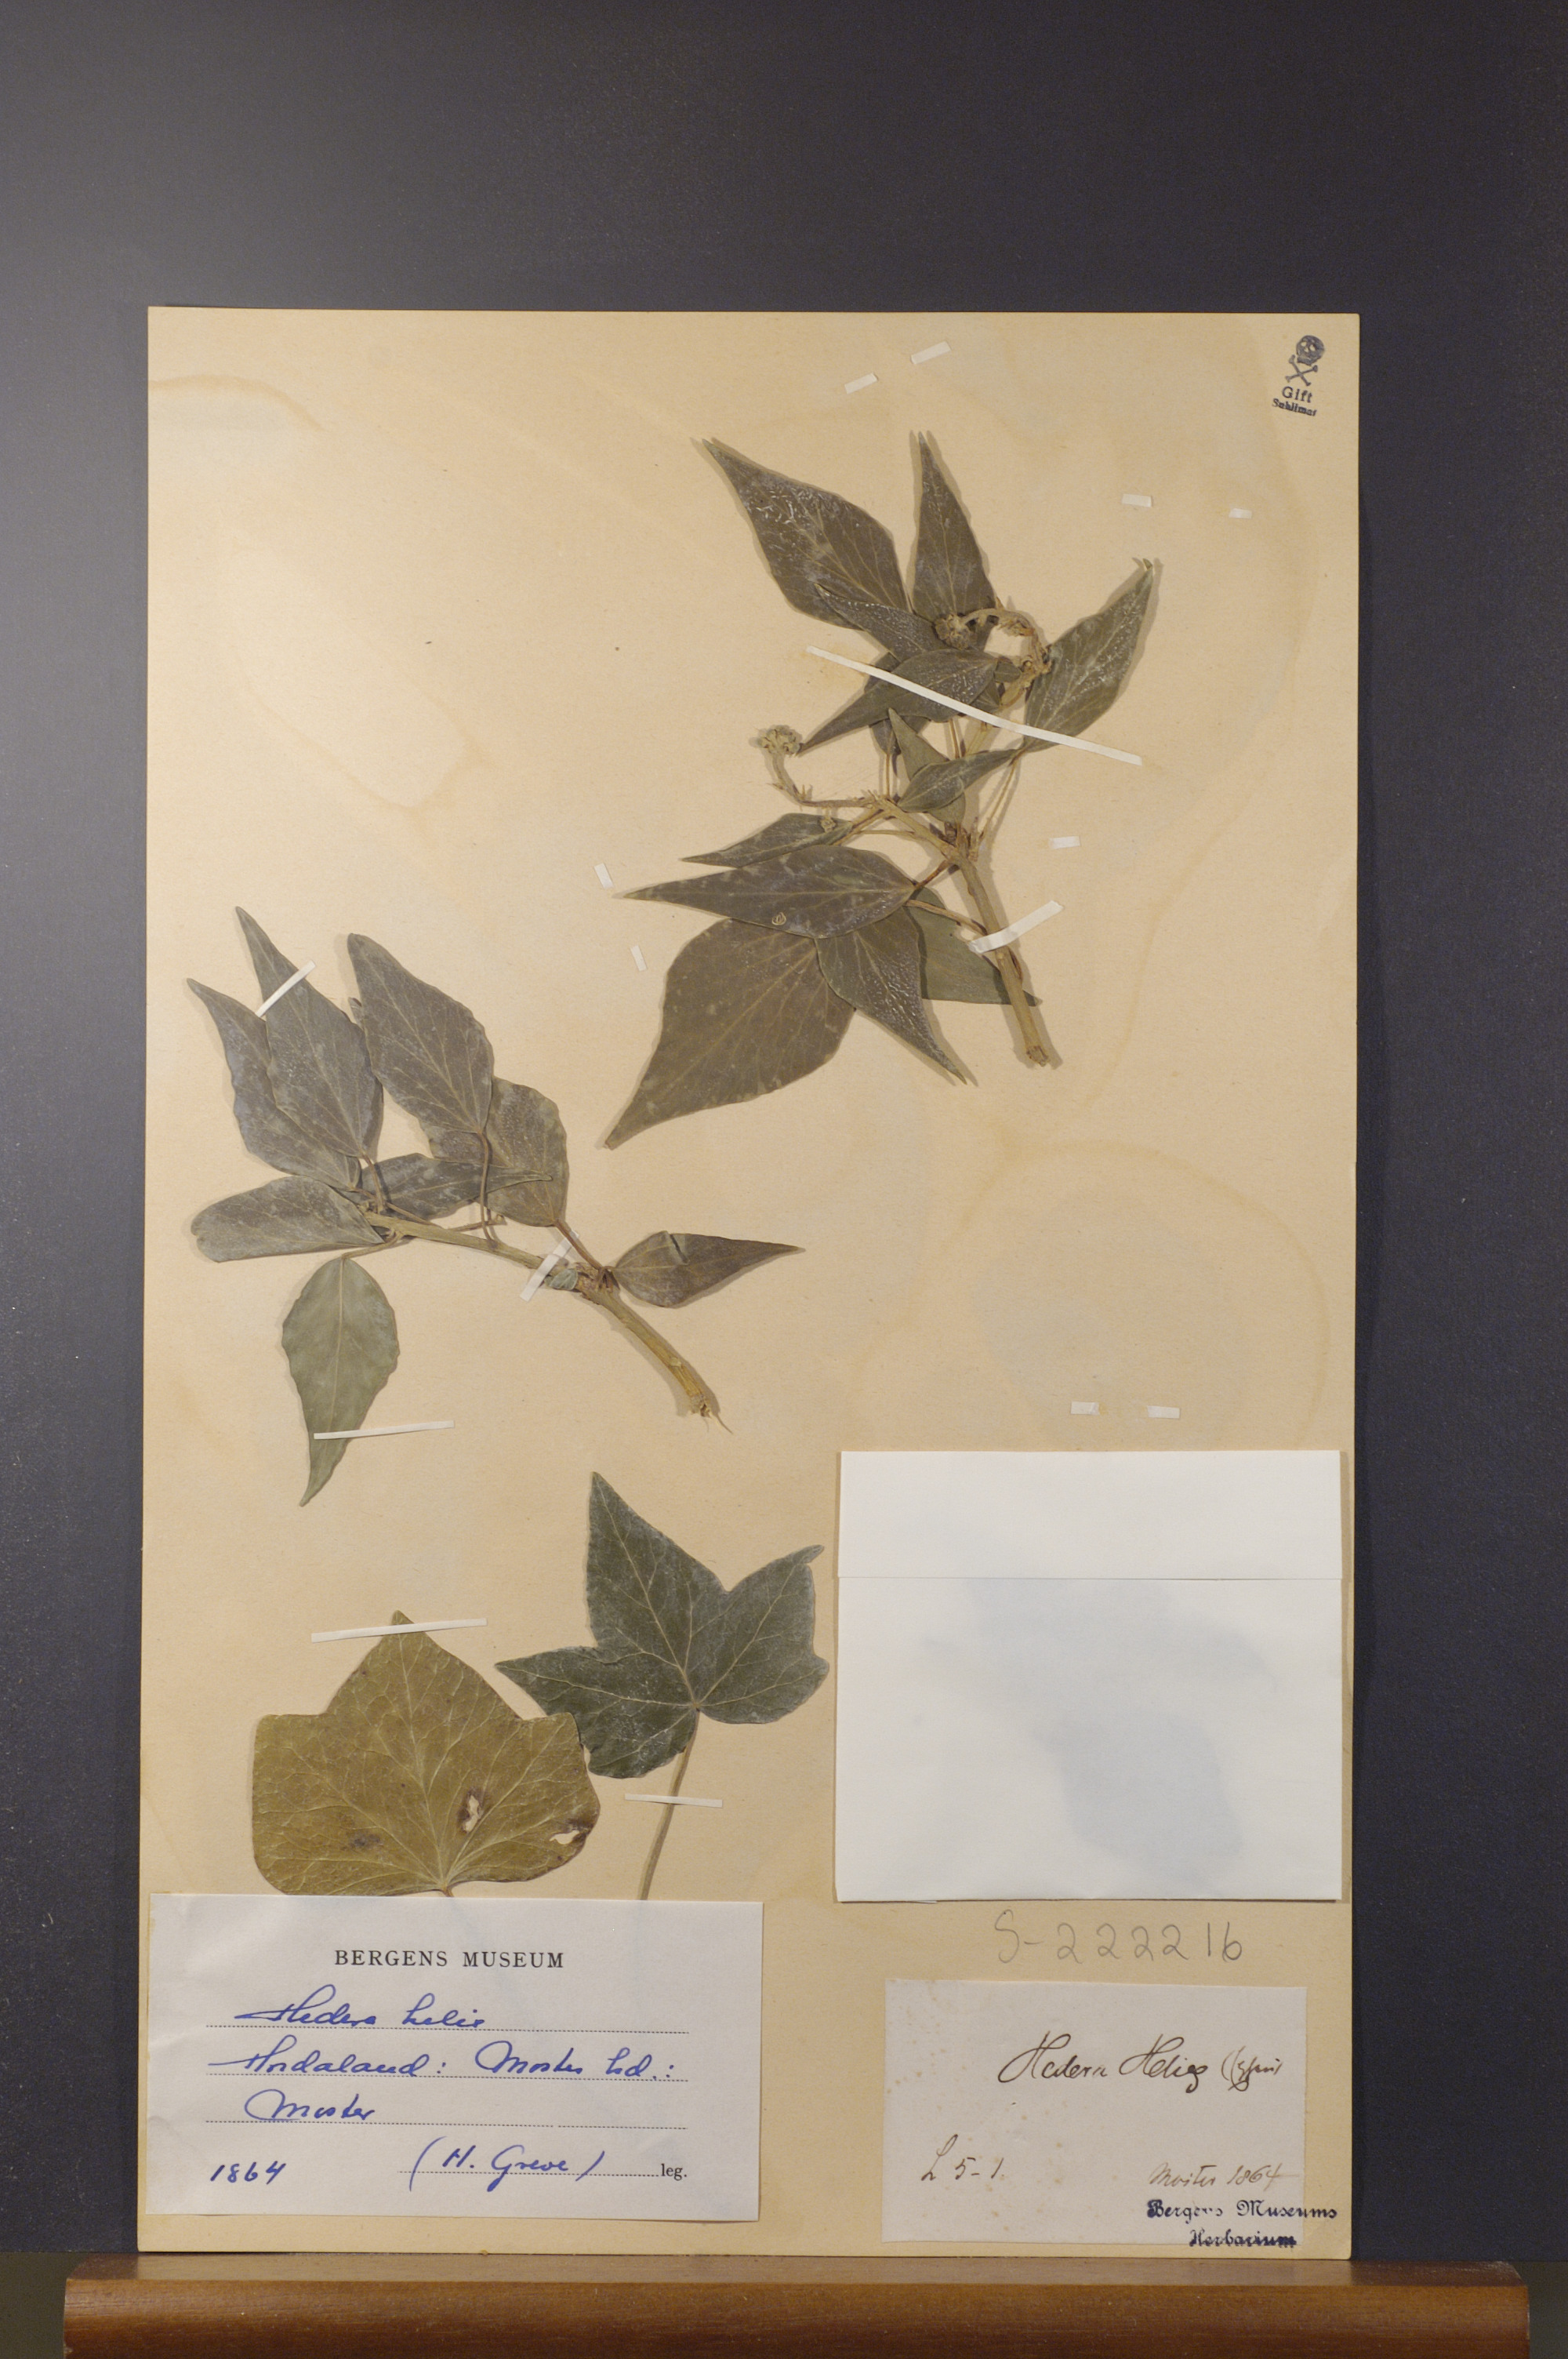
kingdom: Plantae
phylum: Tracheophyta
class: Magnoliopsida
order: Apiales
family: Araliaceae
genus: Hedera
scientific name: Hedera helix
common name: Ivy
